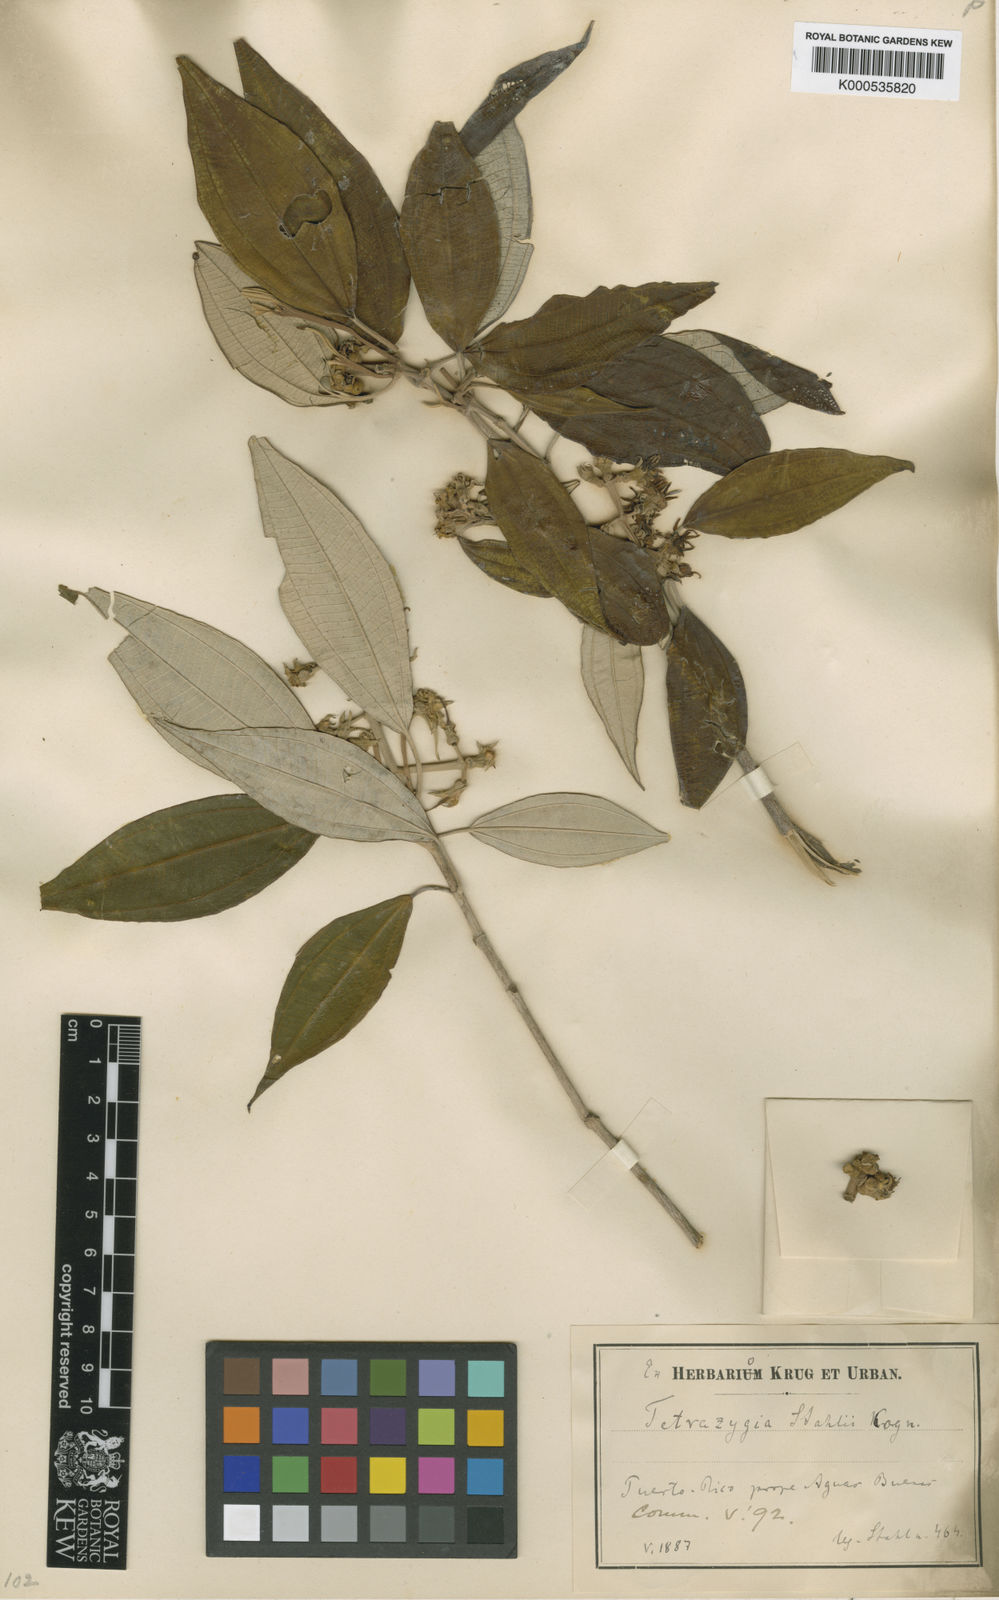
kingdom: Plantae
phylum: Tracheophyta
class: Magnoliopsida
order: Myrtales
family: Melastomataceae
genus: Miconia
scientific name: Miconia
